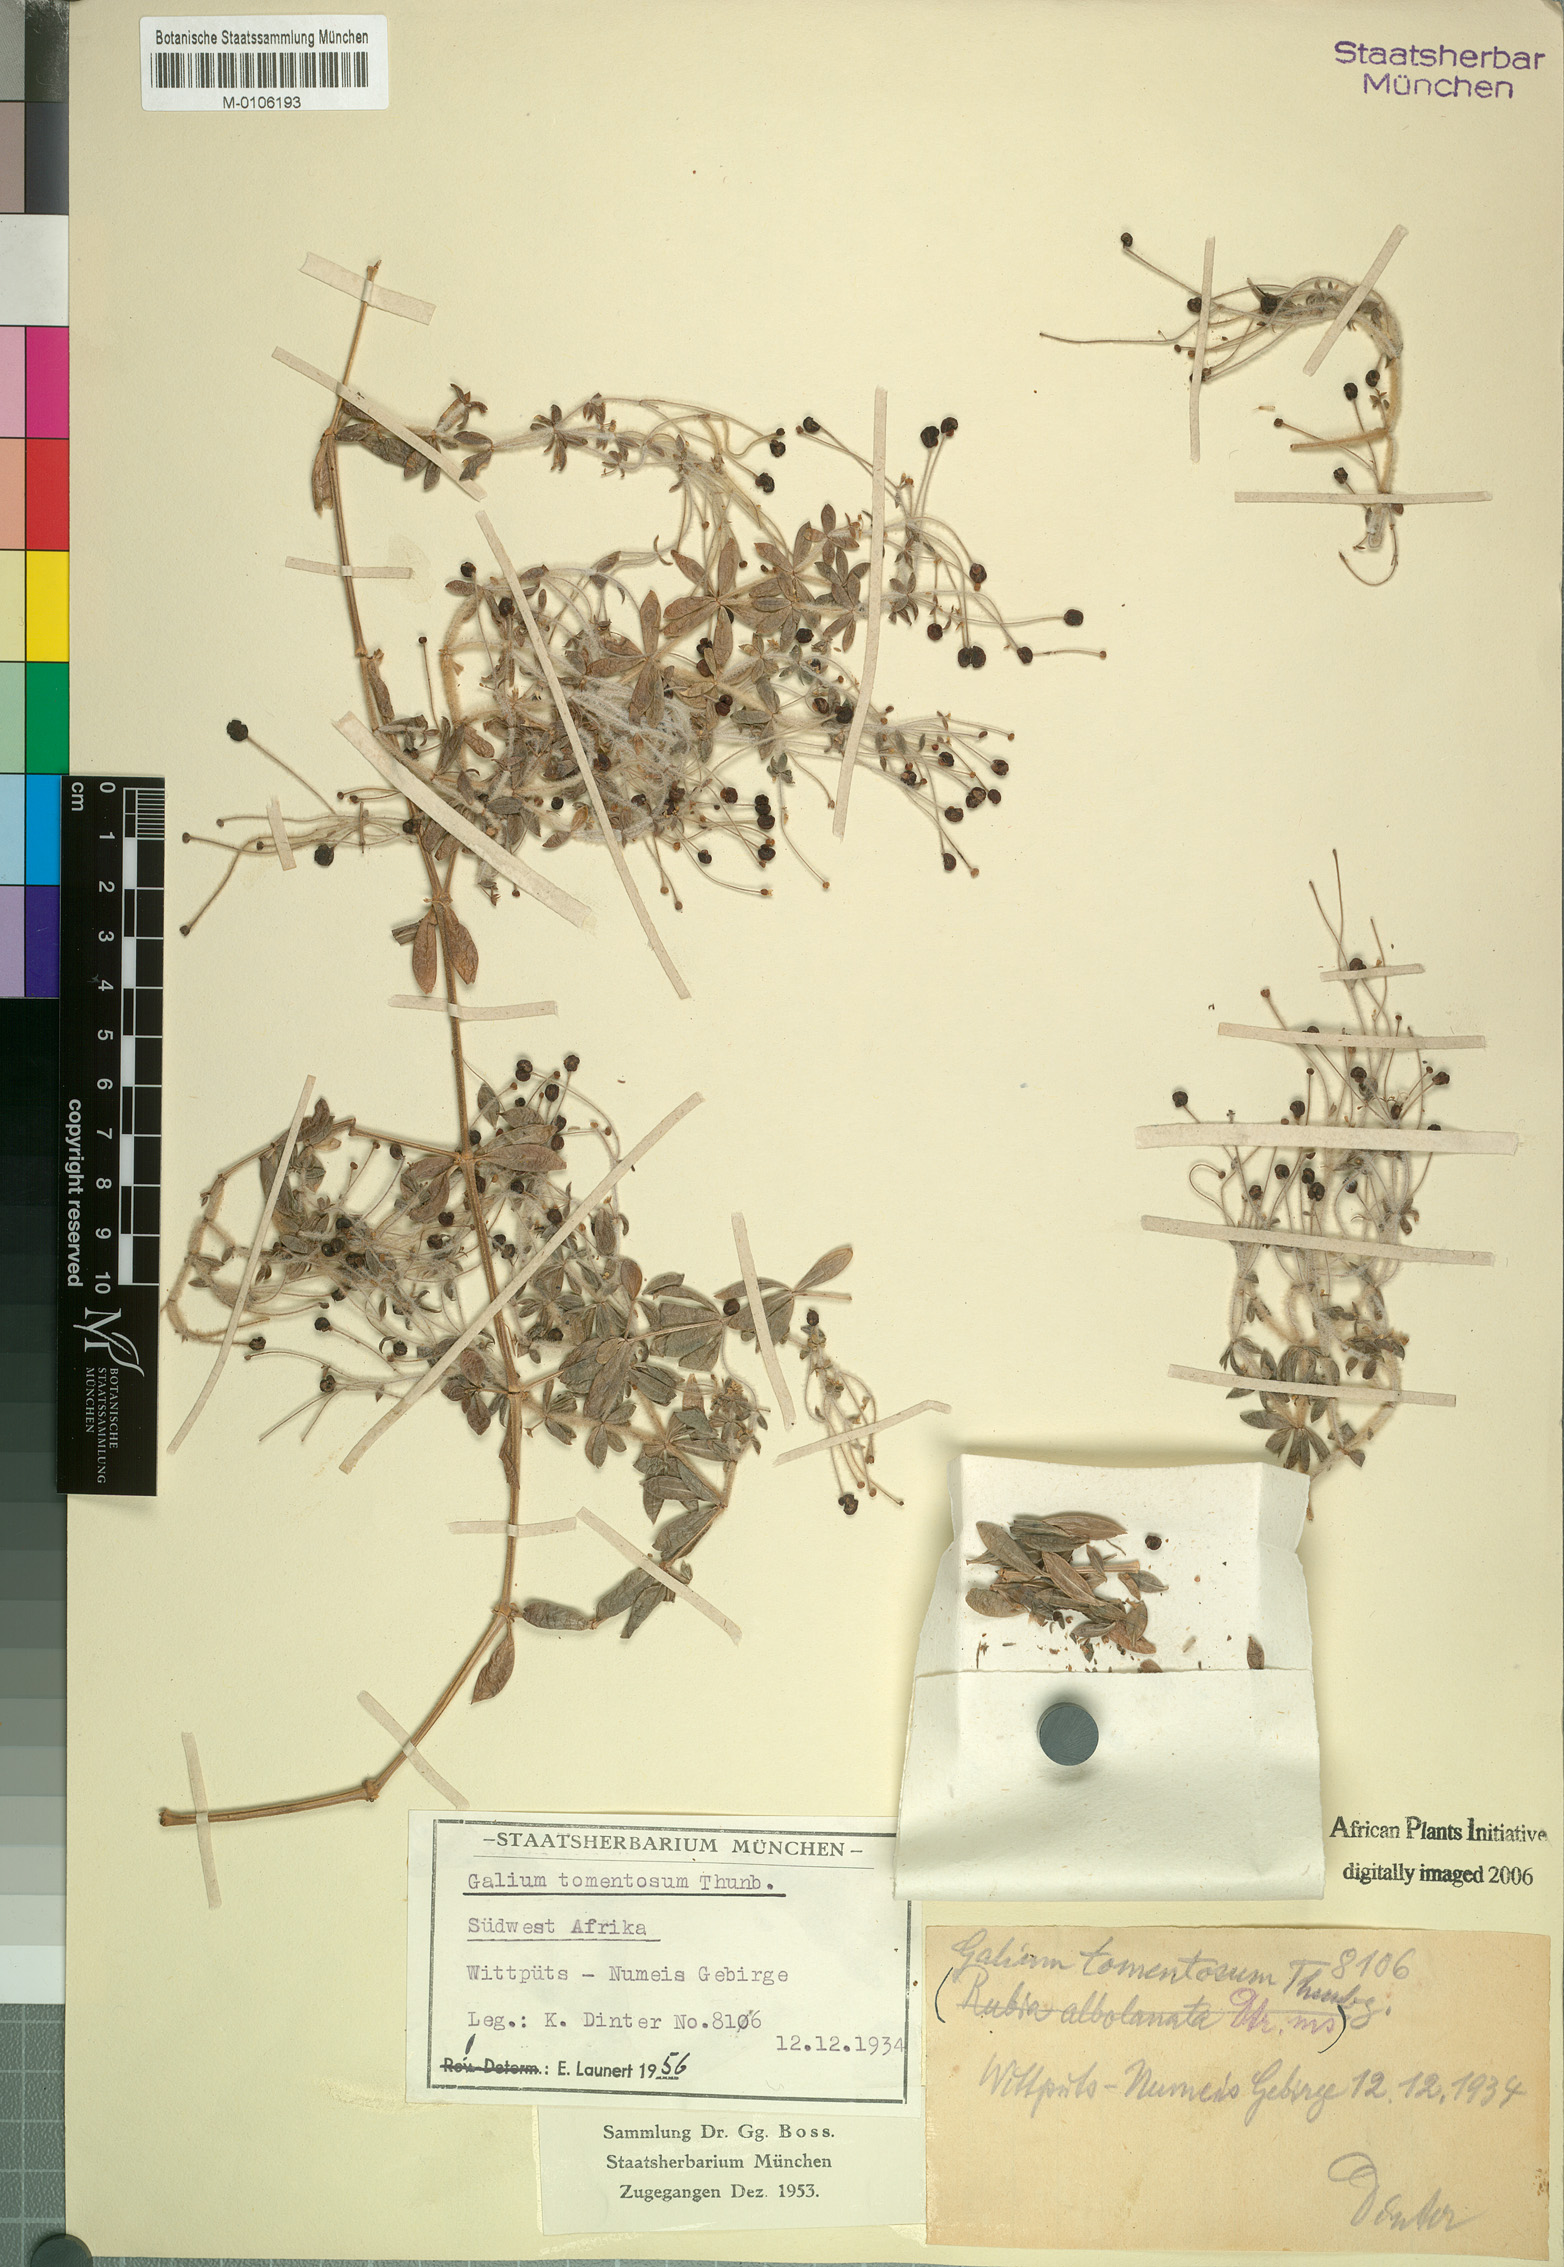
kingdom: Plantae
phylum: Tracheophyta
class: Magnoliopsida
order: Gentianales
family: Rubiaceae
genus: Galium
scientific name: Galium tomentosum
